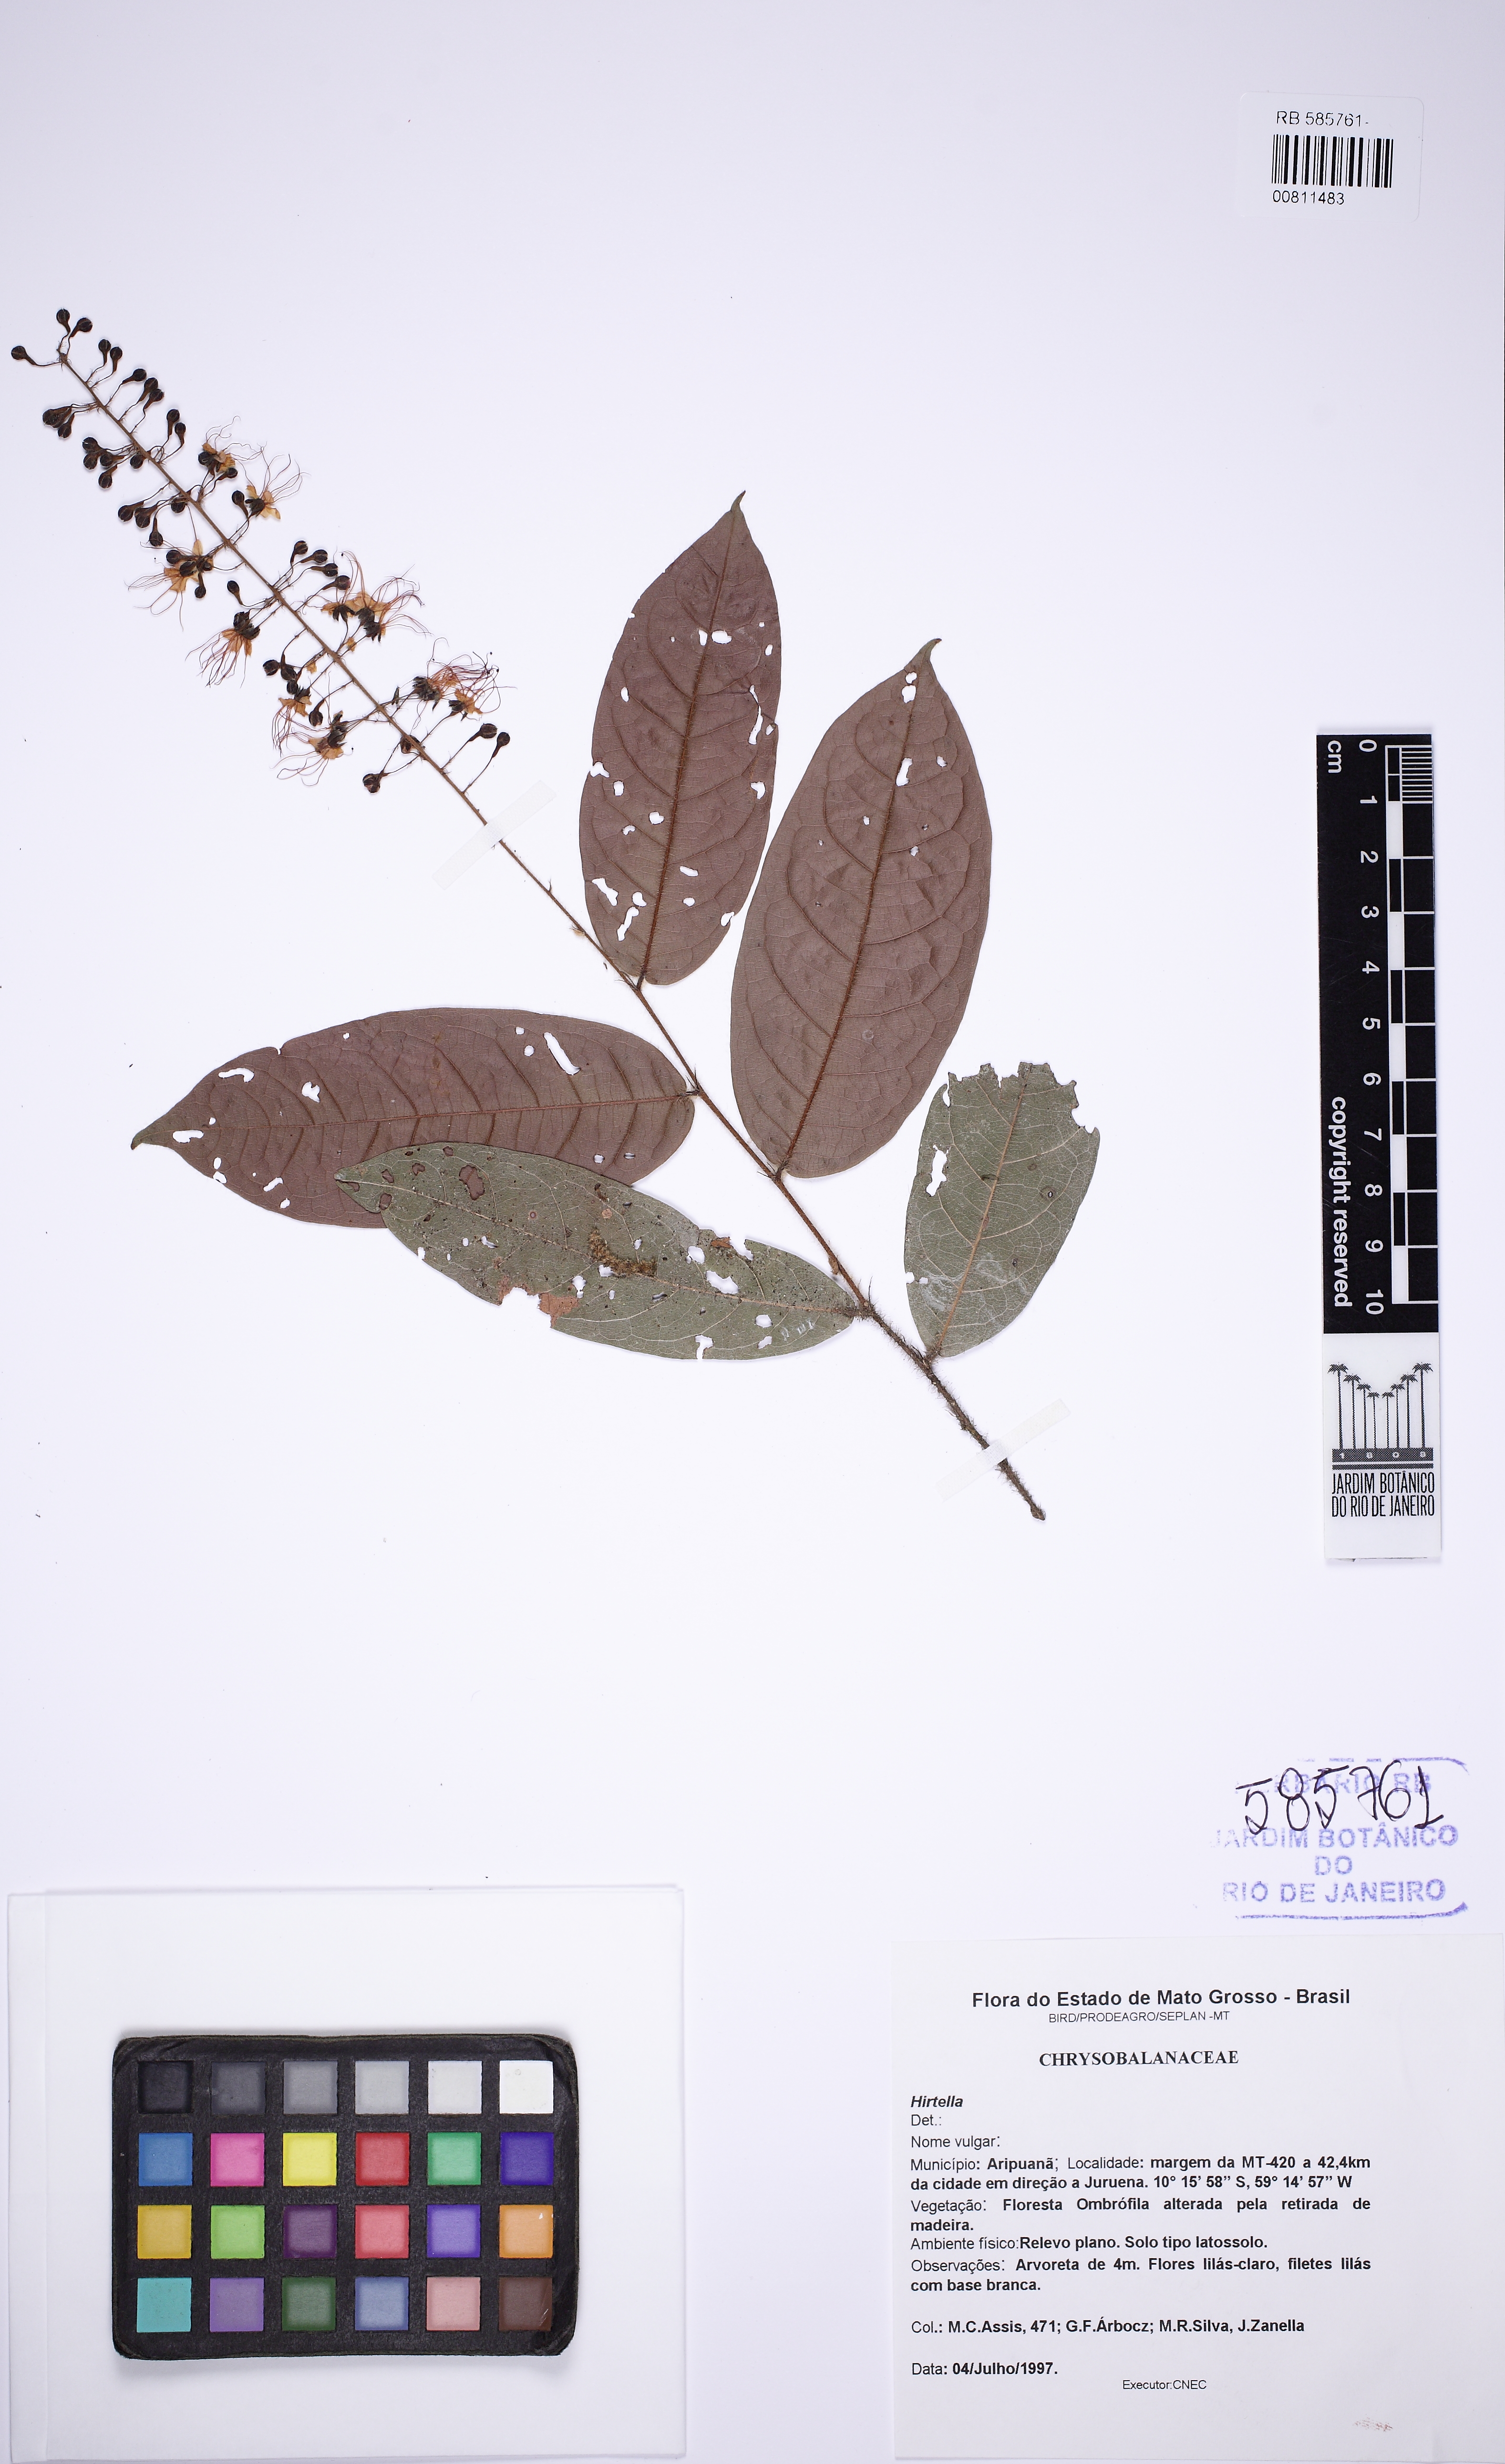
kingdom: Plantae
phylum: Tracheophyta
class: Magnoliopsida
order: Malpighiales
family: Chrysobalanaceae
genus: Hirtella
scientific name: Hirtella hispidula
